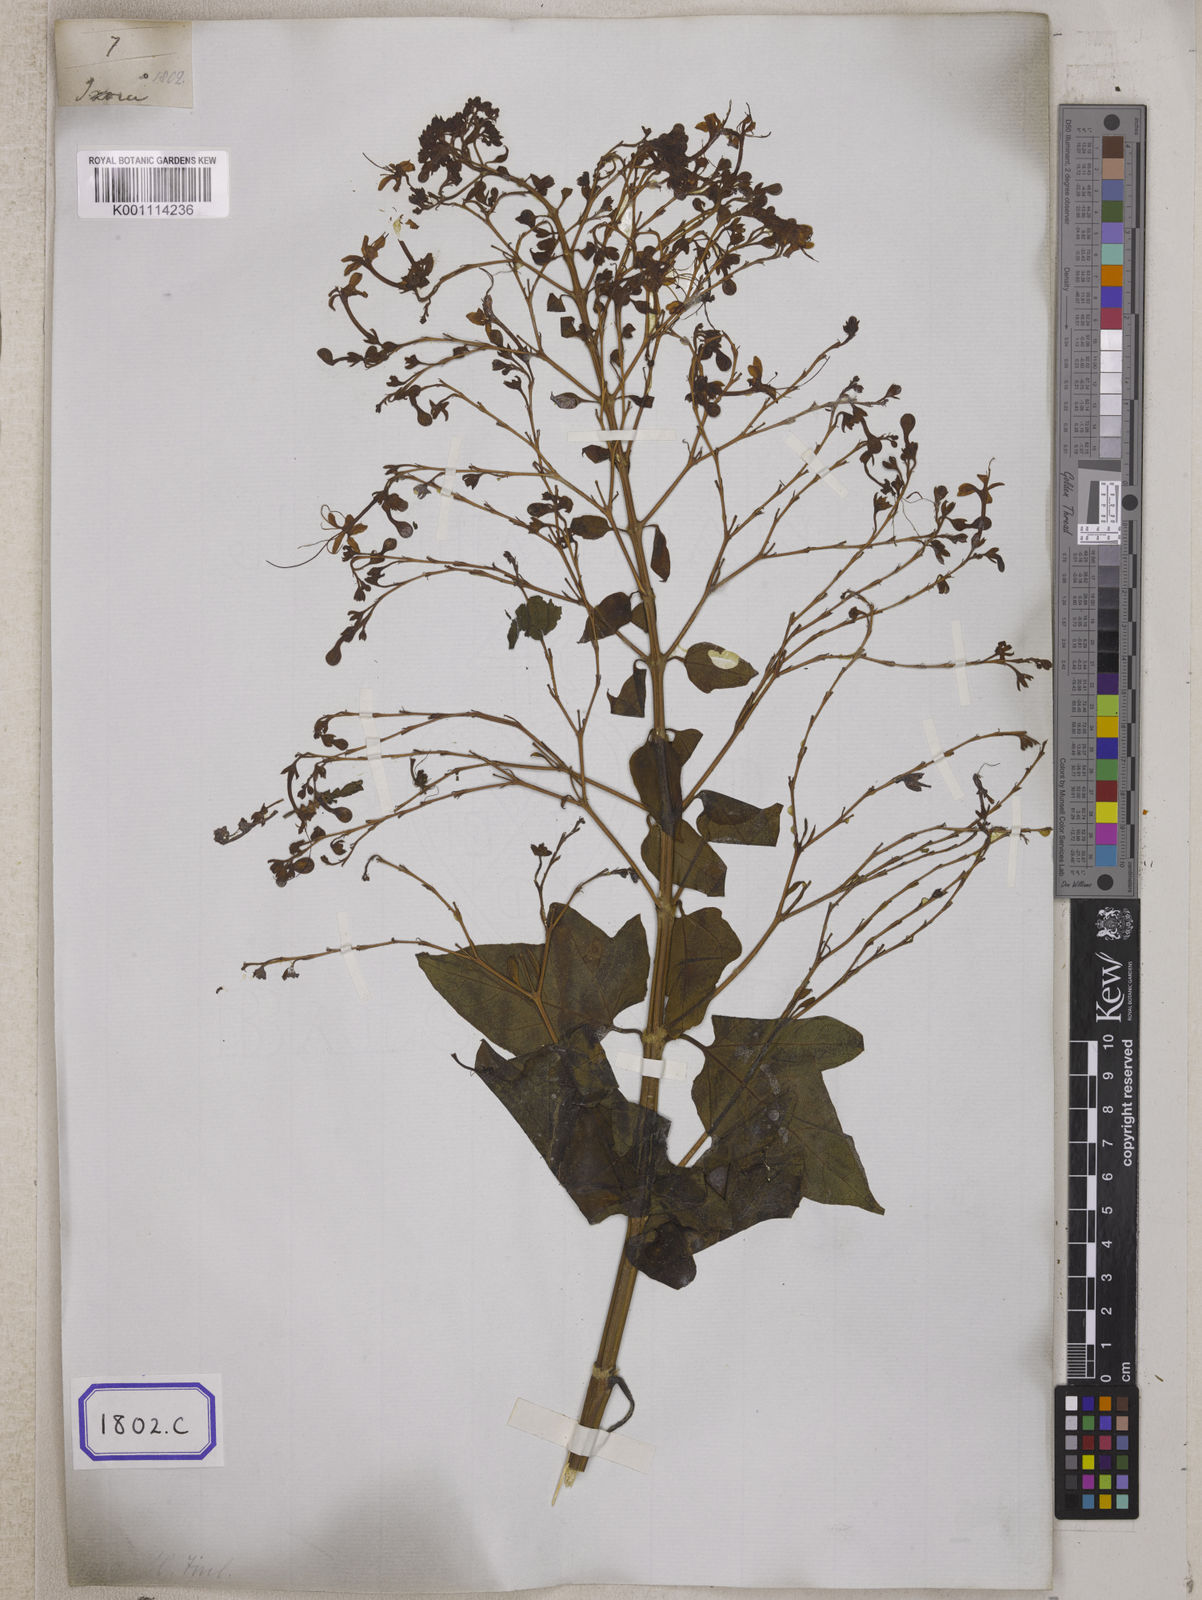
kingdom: Plantae
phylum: Tracheophyta
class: Magnoliopsida
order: Lamiales
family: Lamiaceae
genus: Clerodendrum
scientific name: Clerodendrum paniculatum
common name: Pagoda-flower
